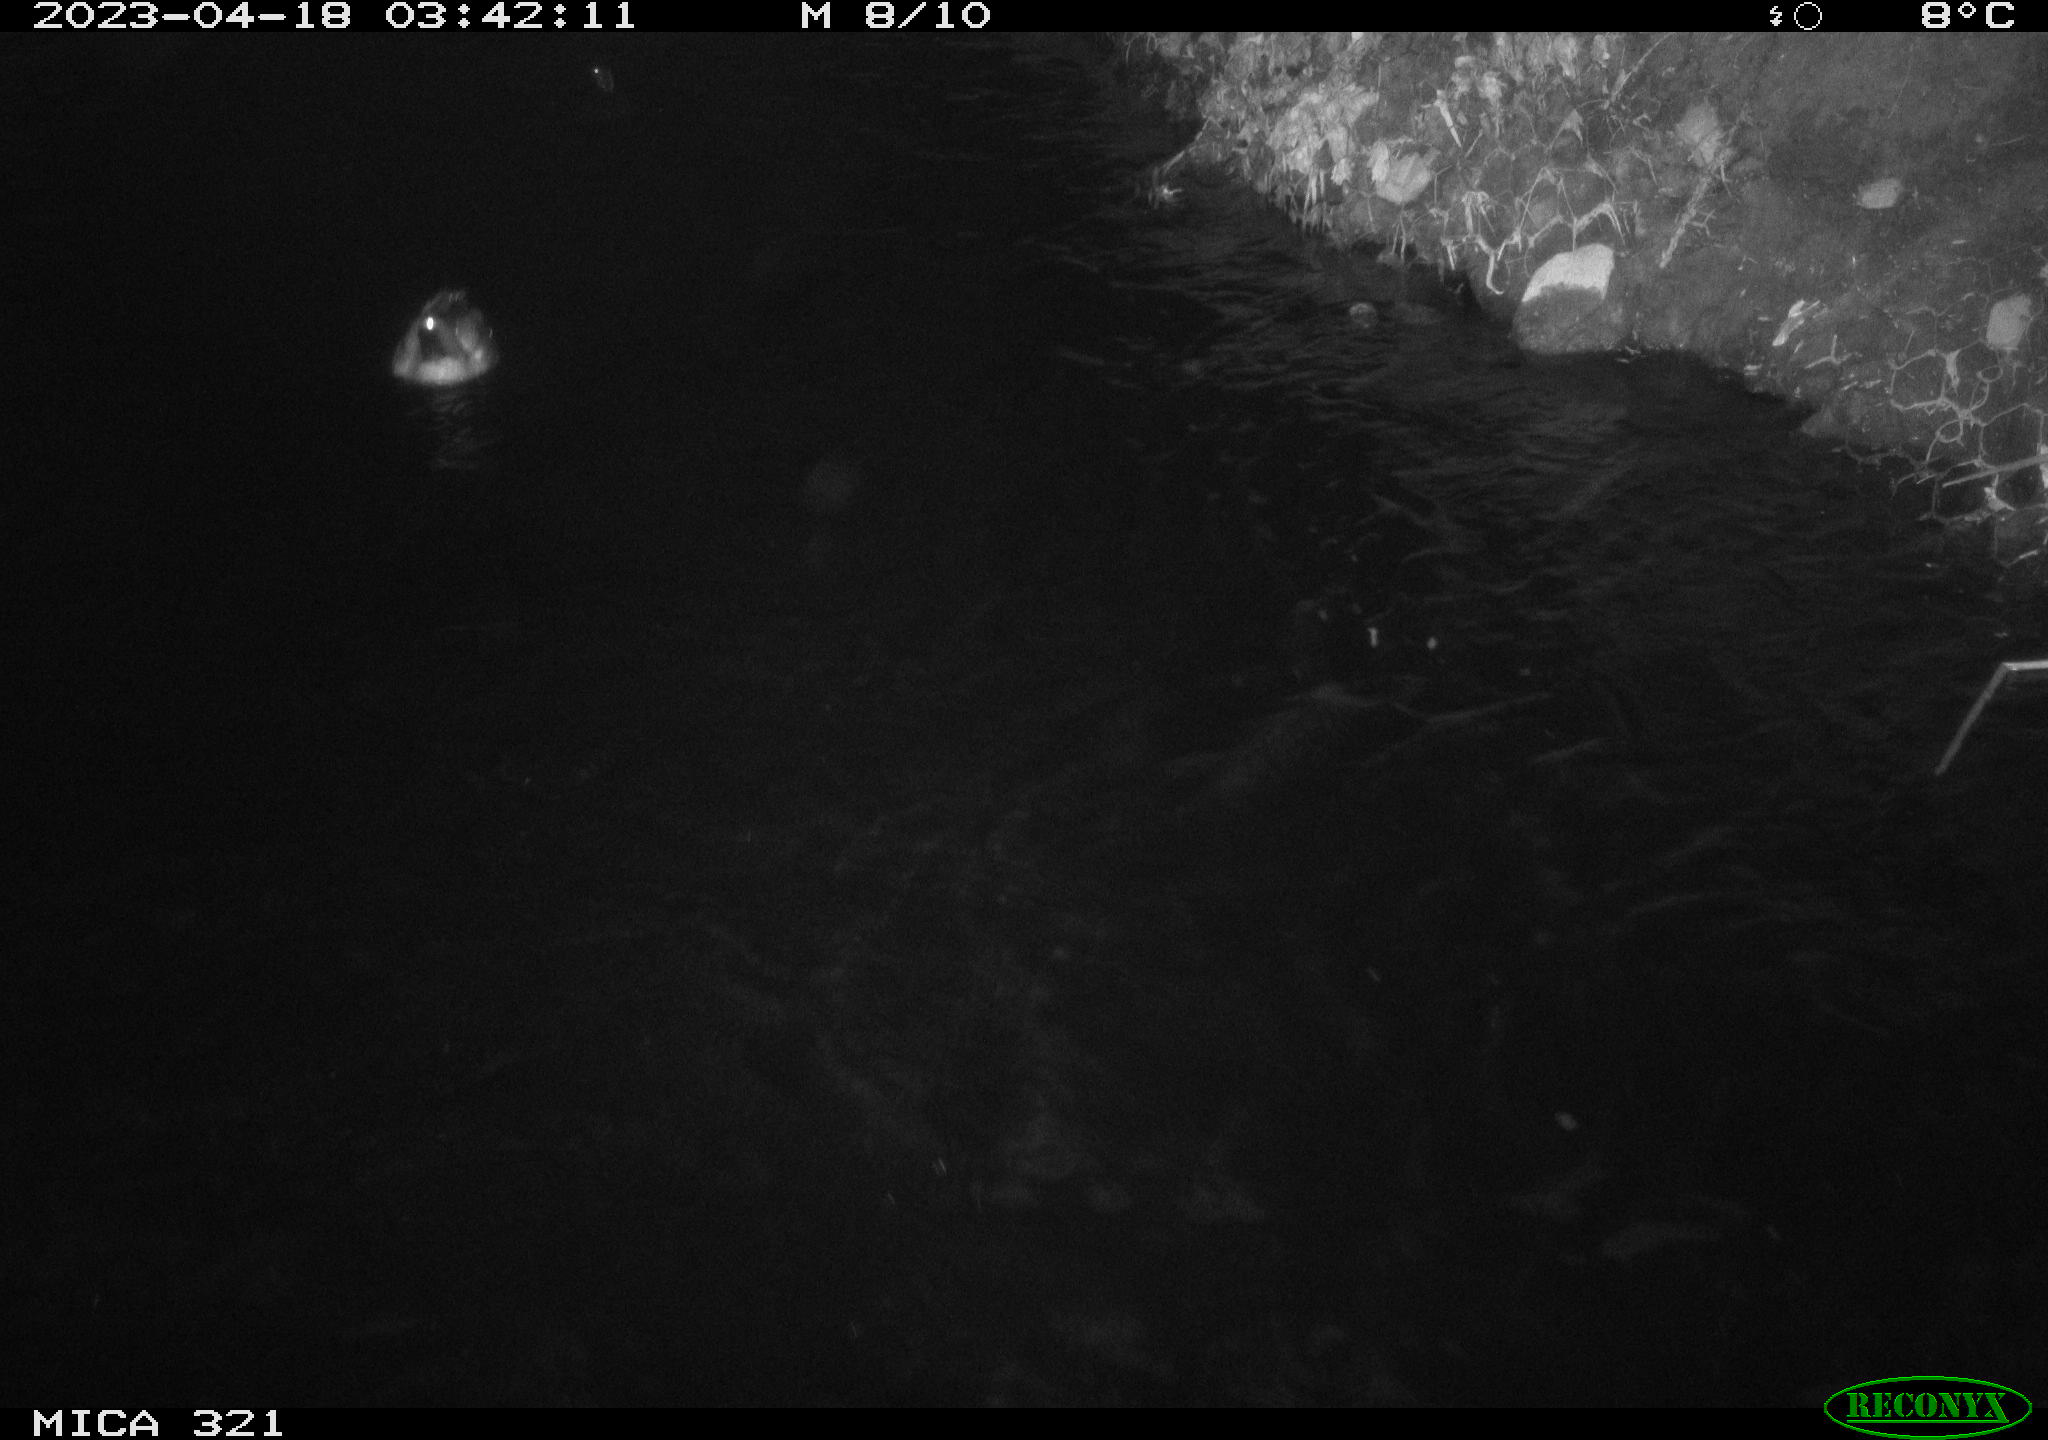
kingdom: Animalia
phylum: Chordata
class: Aves
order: Anseriformes
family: Anatidae
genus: Anas
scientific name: Anas
